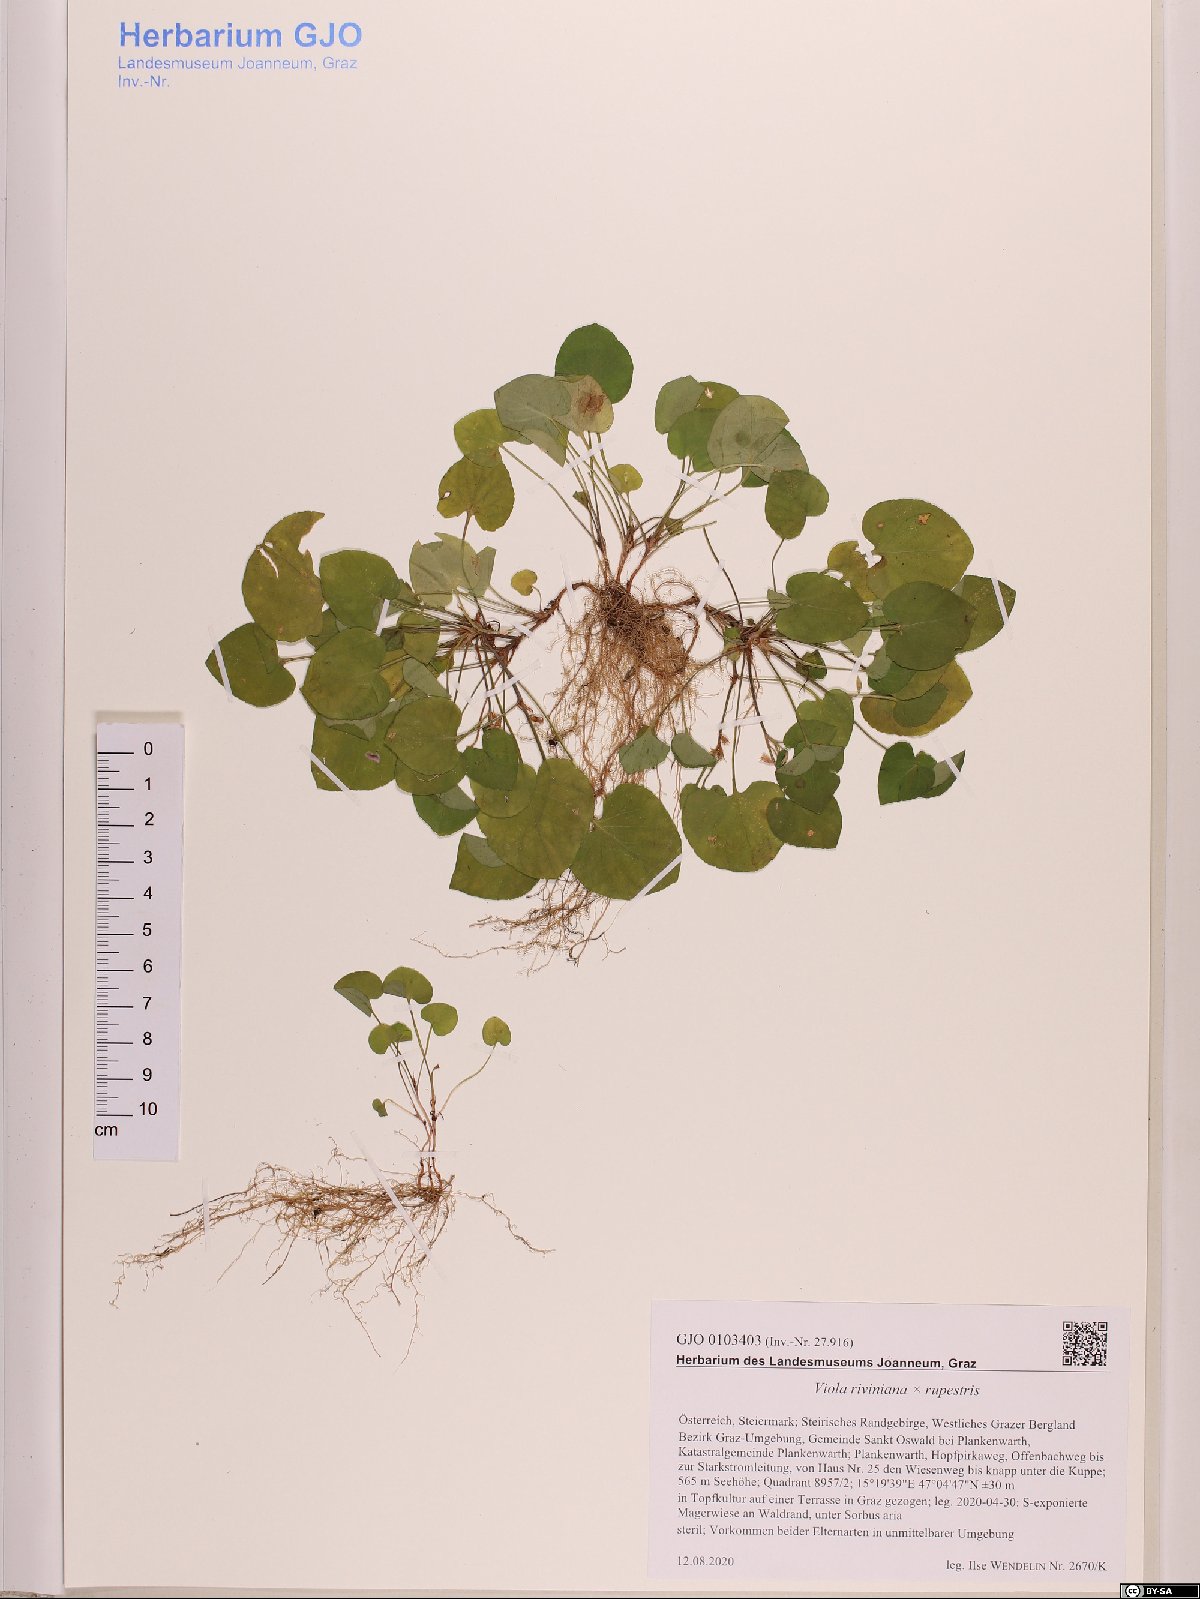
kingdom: Plantae
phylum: Tracheophyta
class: Magnoliopsida
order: Malpighiales
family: Violaceae
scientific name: Violaceae
